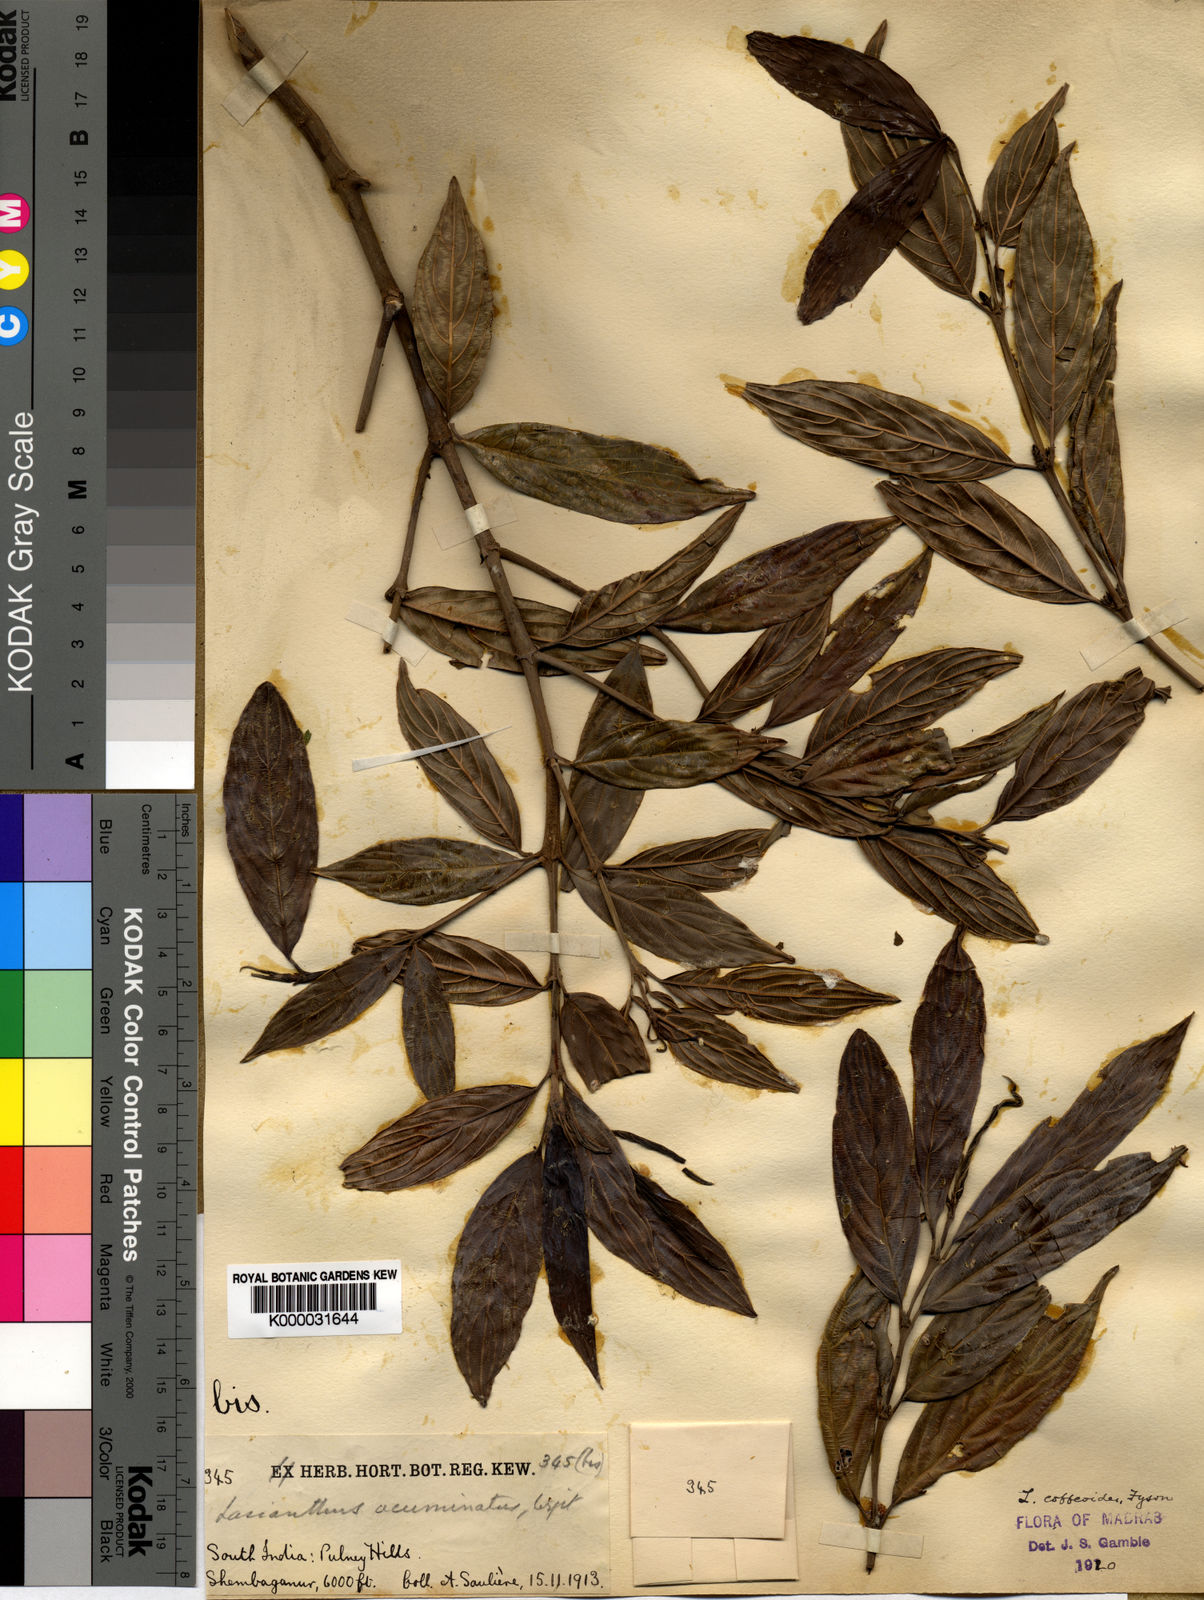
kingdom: Plantae
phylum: Tracheophyta
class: Magnoliopsida
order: Gentianales
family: Rubiaceae
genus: Lasianthus
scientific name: Lasianthus
